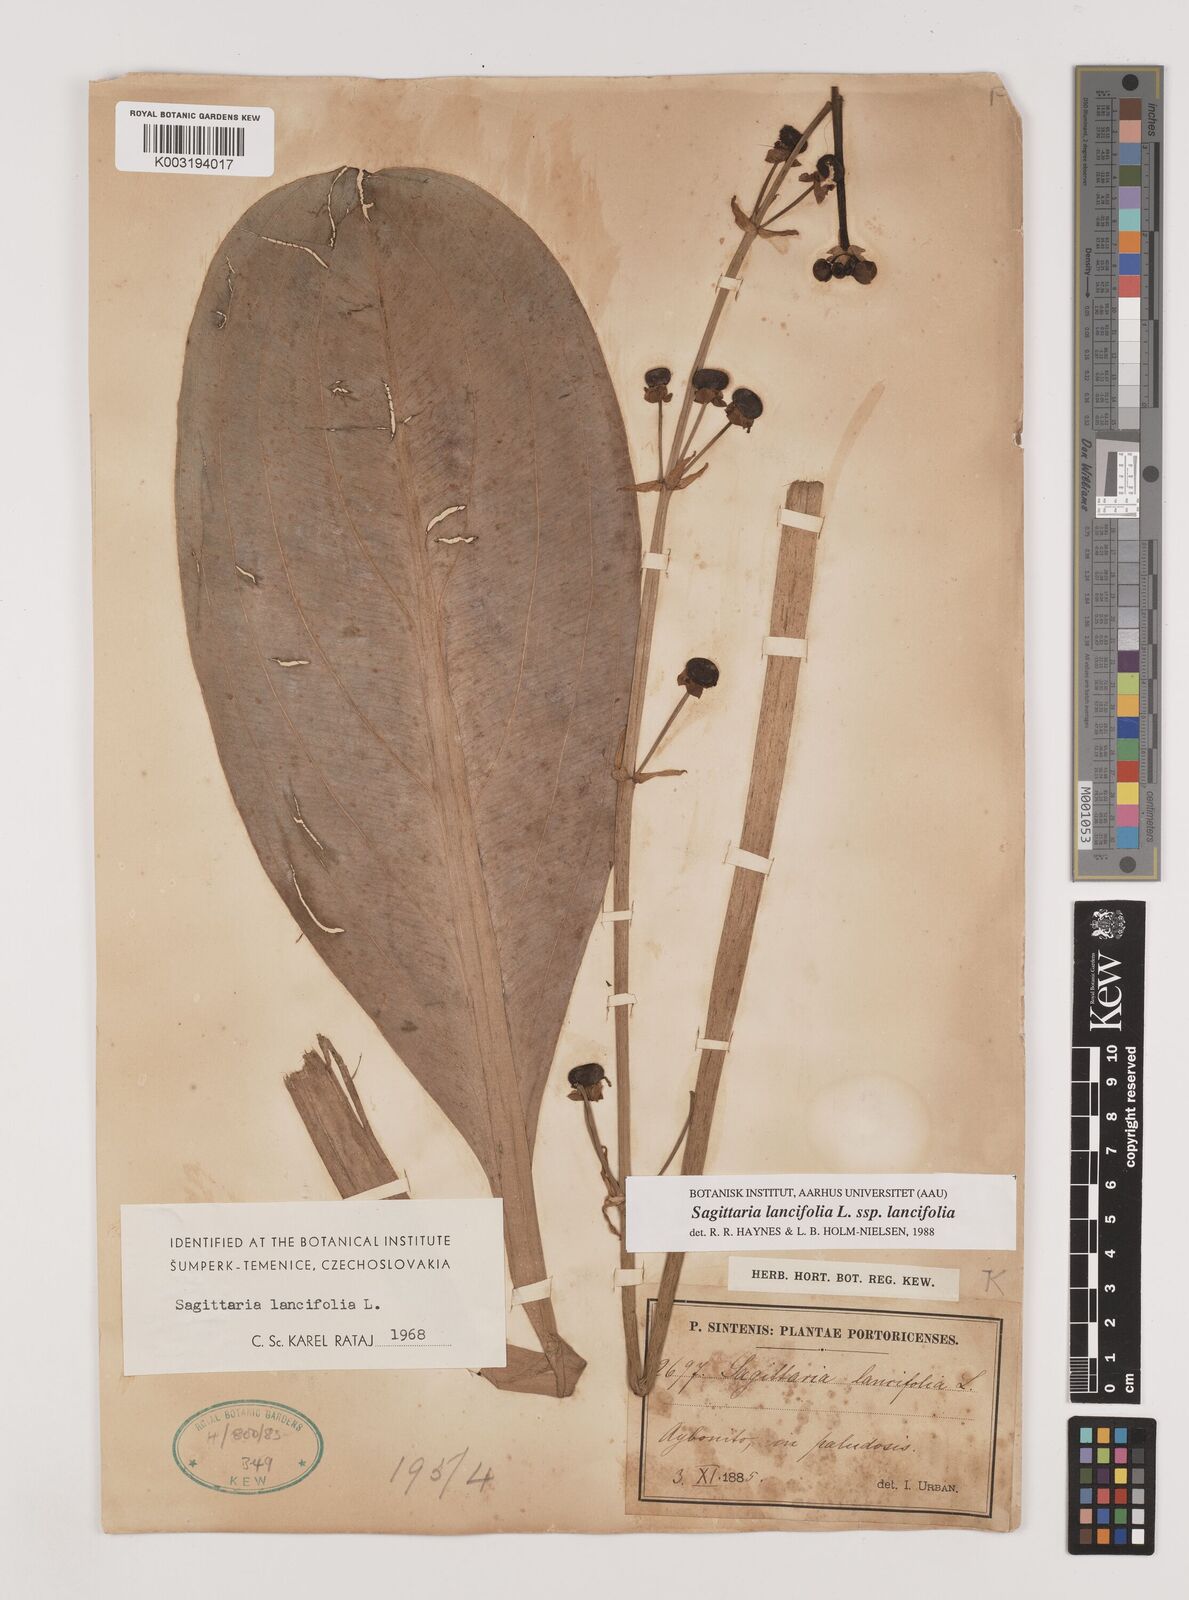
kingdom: Plantae
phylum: Tracheophyta
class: Liliopsida
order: Alismatales
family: Alismataceae
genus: Sagittaria
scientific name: Sagittaria lancifolia
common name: Lance-leaf arrowhead
